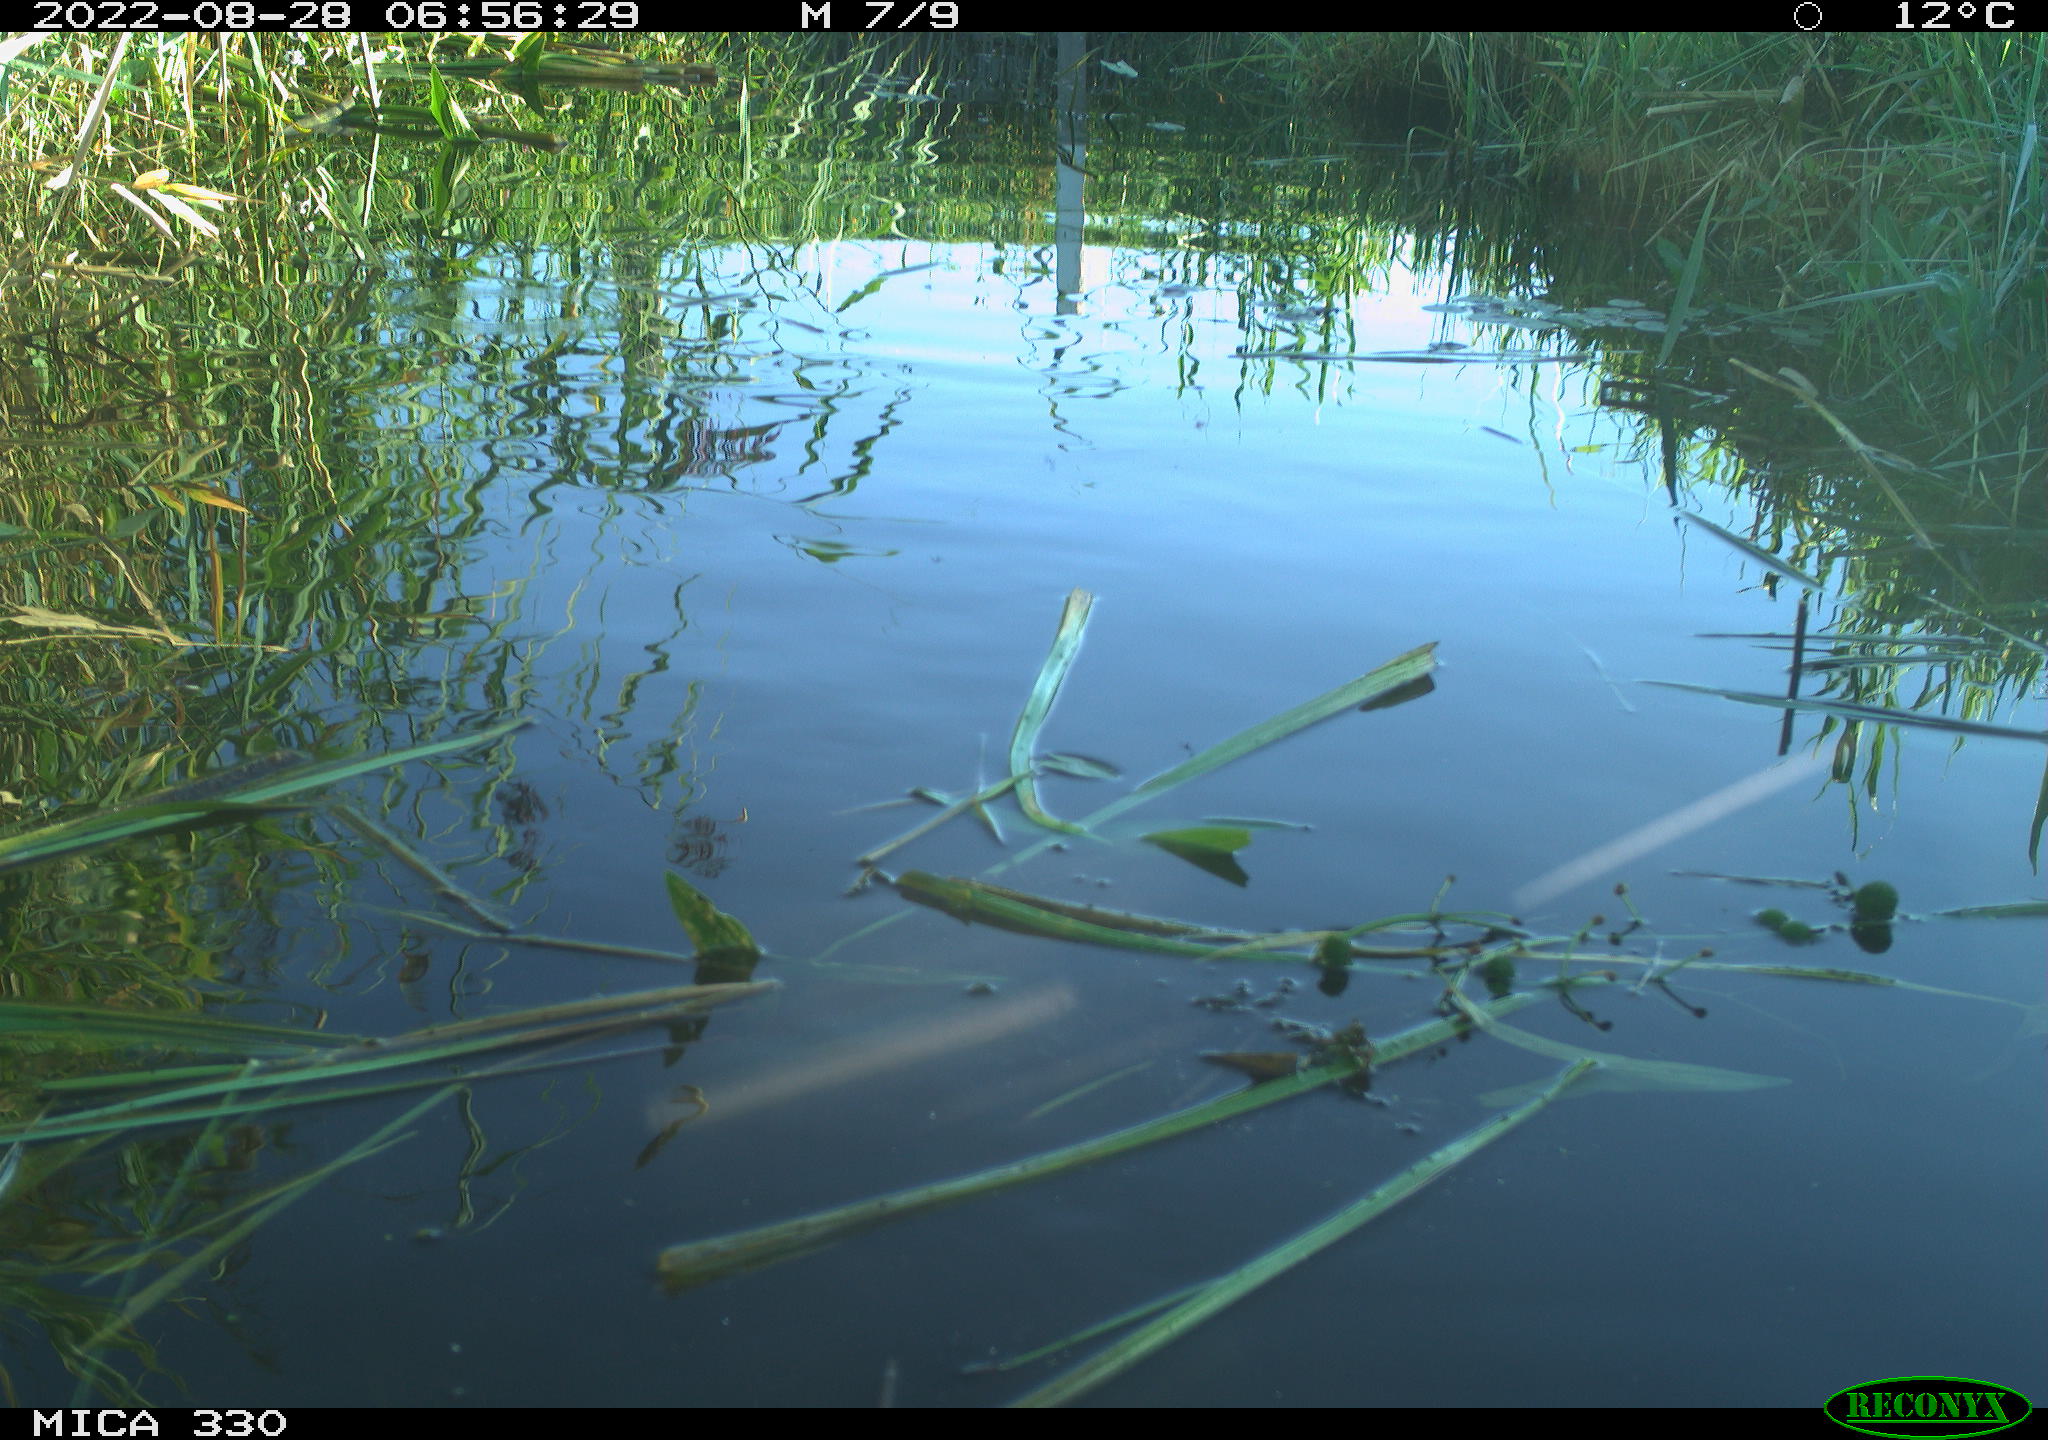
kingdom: Animalia
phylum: Chordata
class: Aves
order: Anseriformes
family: Anatidae
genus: Anas
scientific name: Anas platyrhynchos
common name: Mallard
